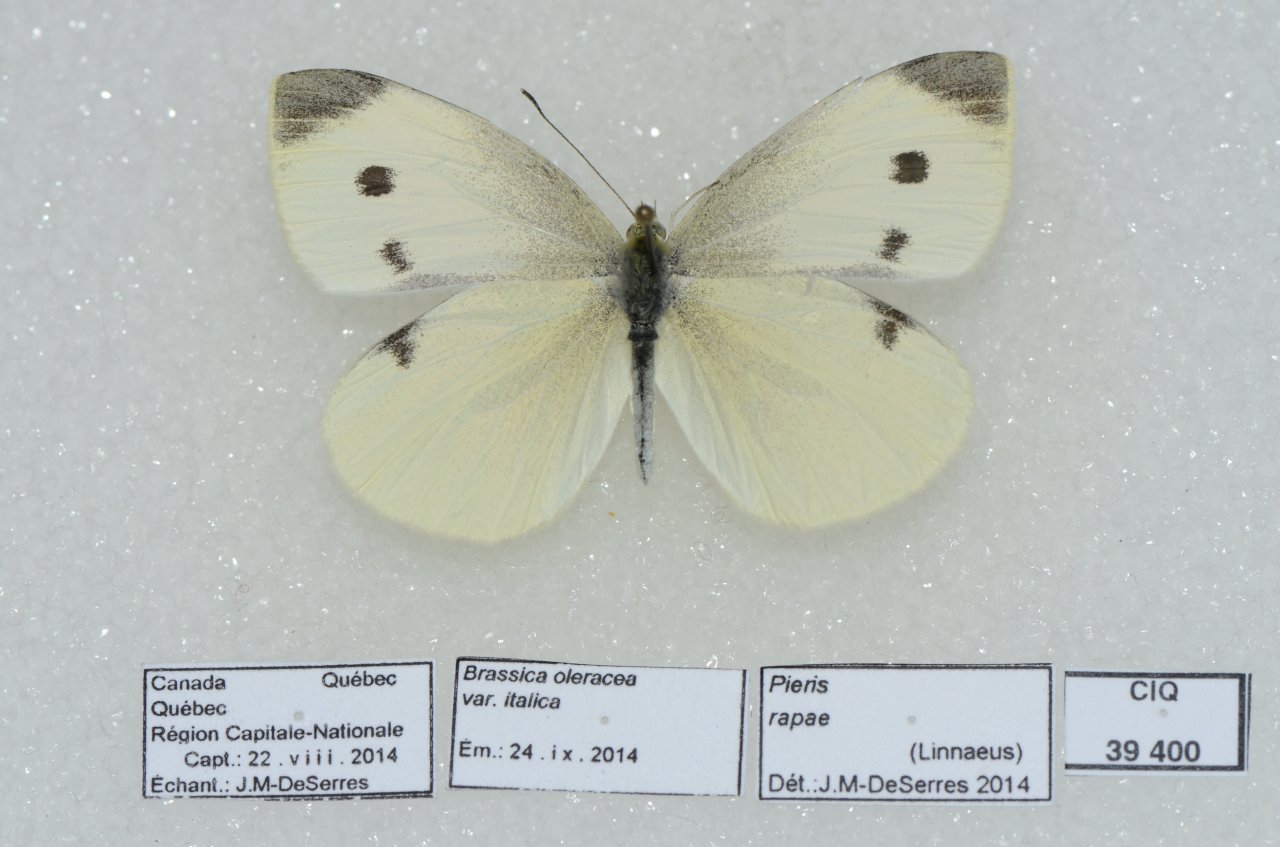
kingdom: Animalia
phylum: Arthropoda
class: Insecta
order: Lepidoptera
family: Pieridae
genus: Pieris
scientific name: Pieris rapae
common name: Cabbage White
